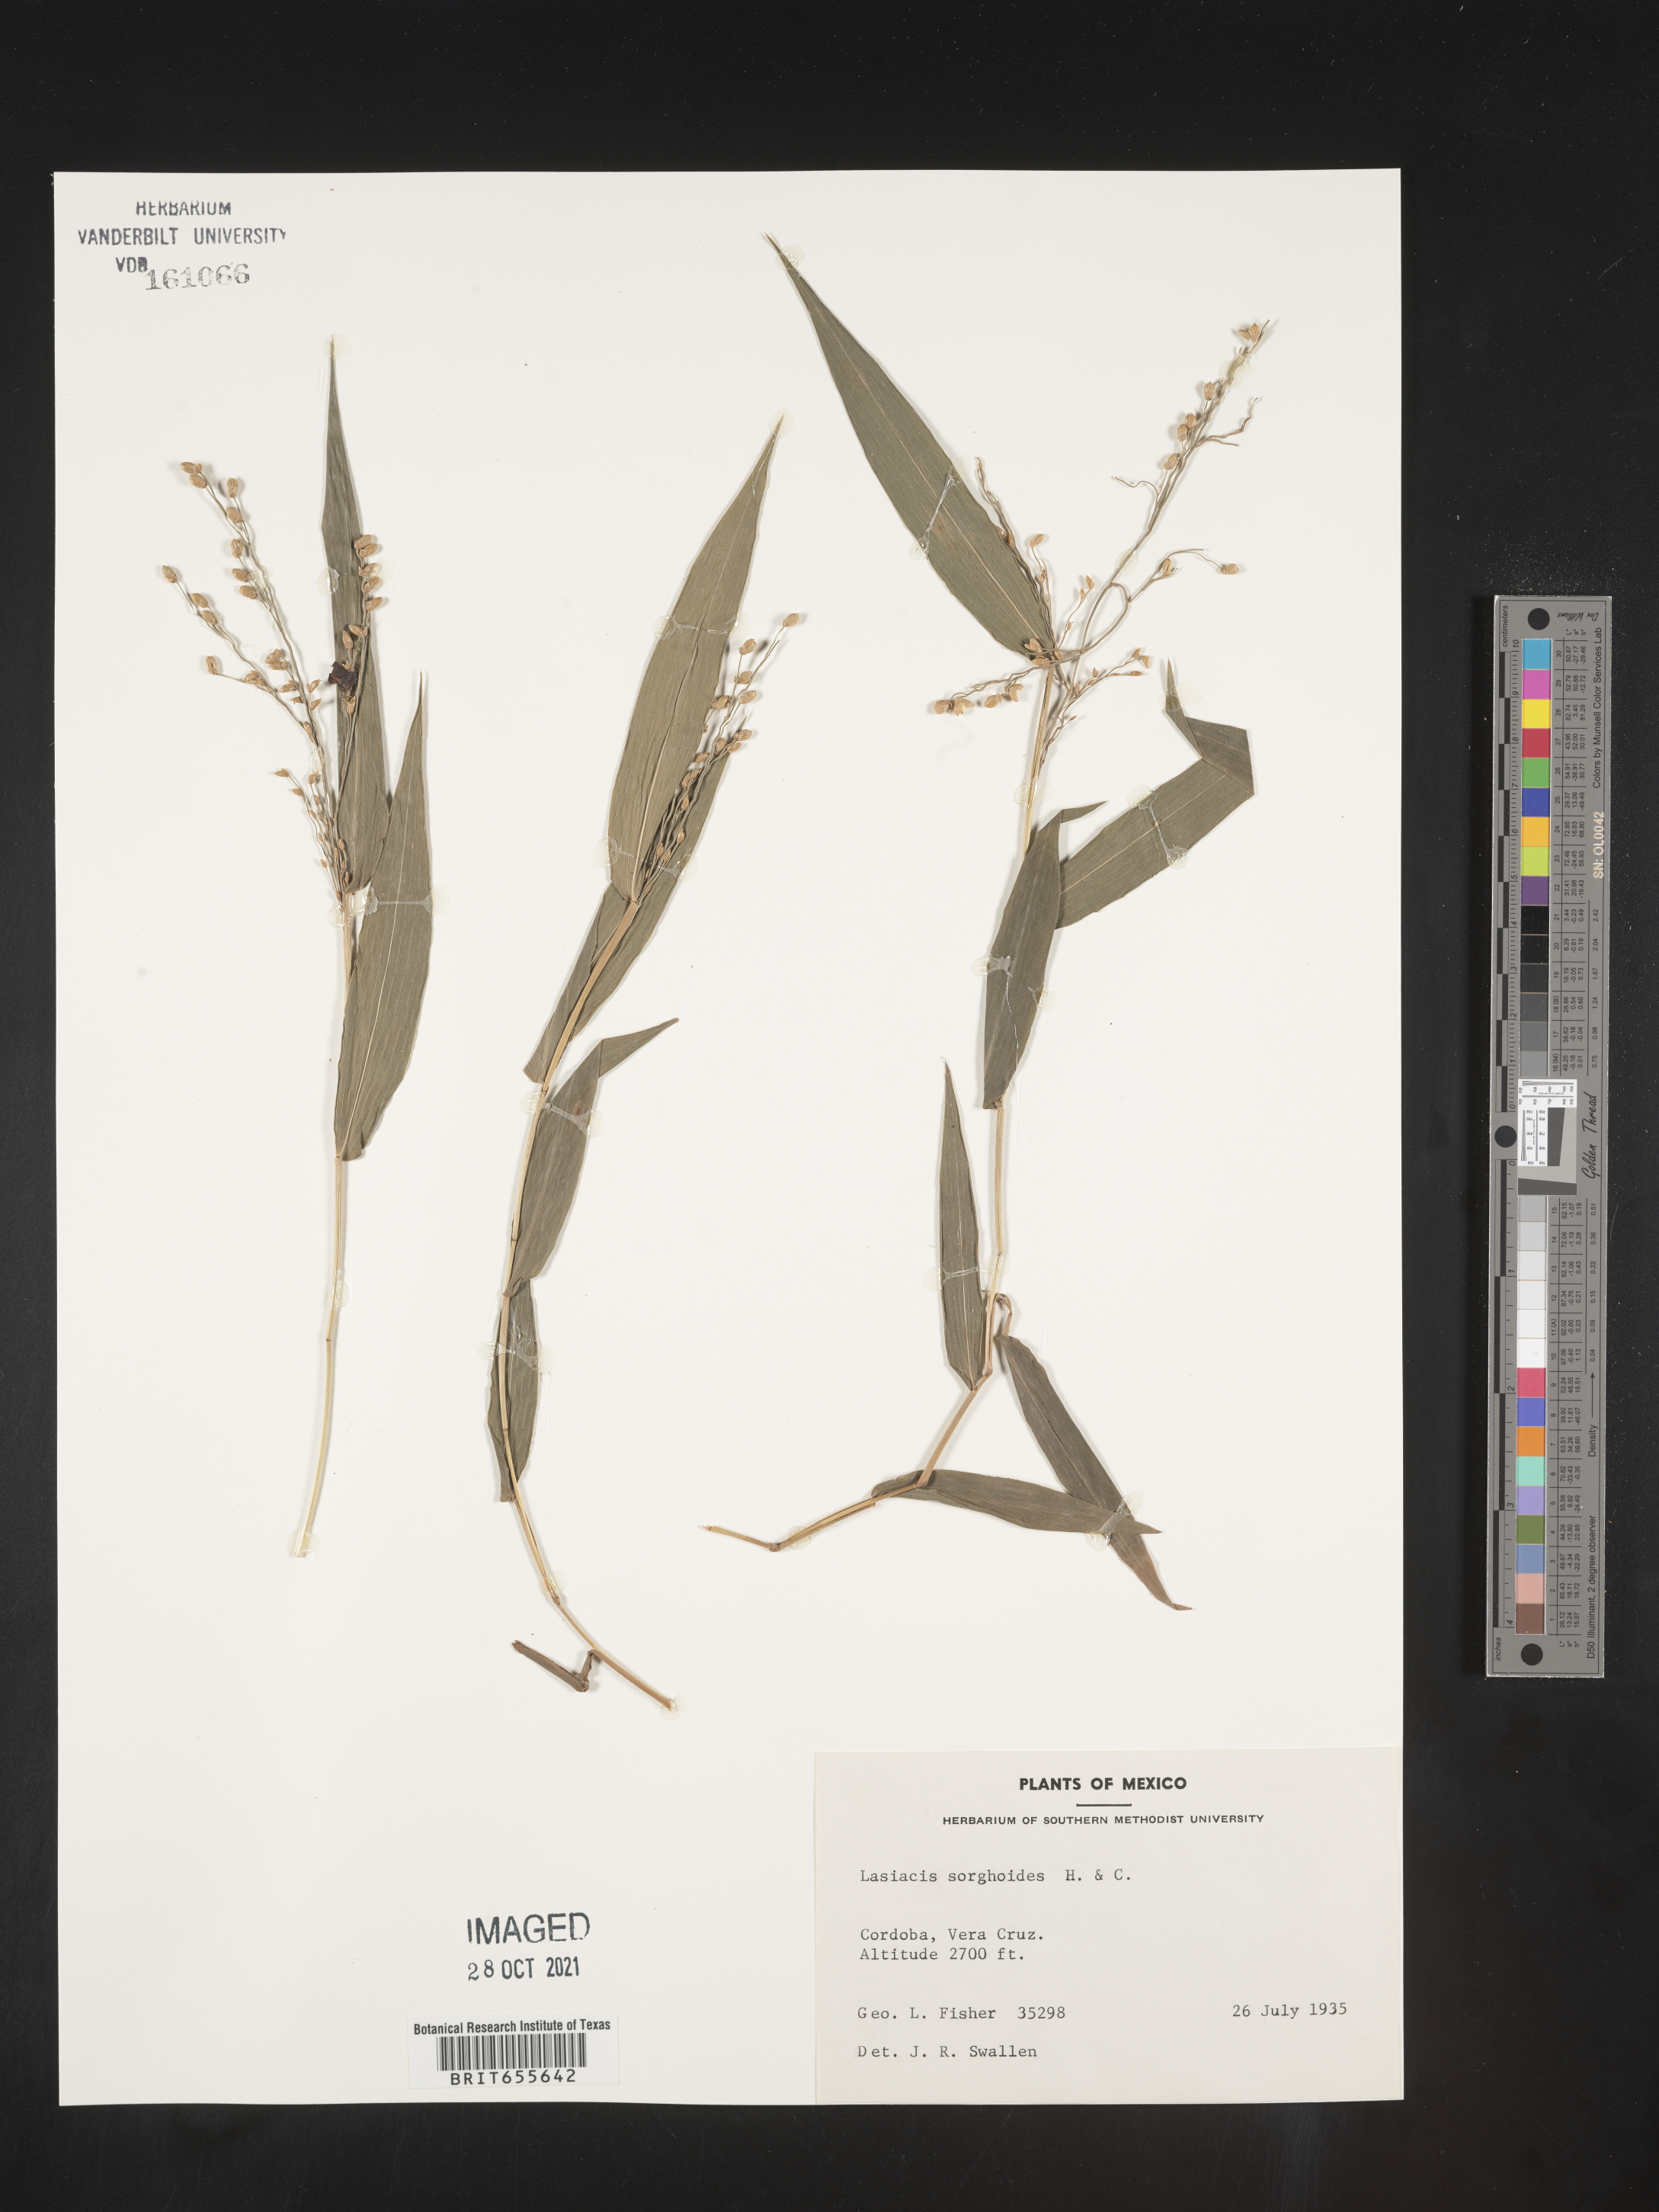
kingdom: Plantae
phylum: Tracheophyta
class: Liliopsida
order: Poales
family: Poaceae
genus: Lasiacis
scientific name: Lasiacis
